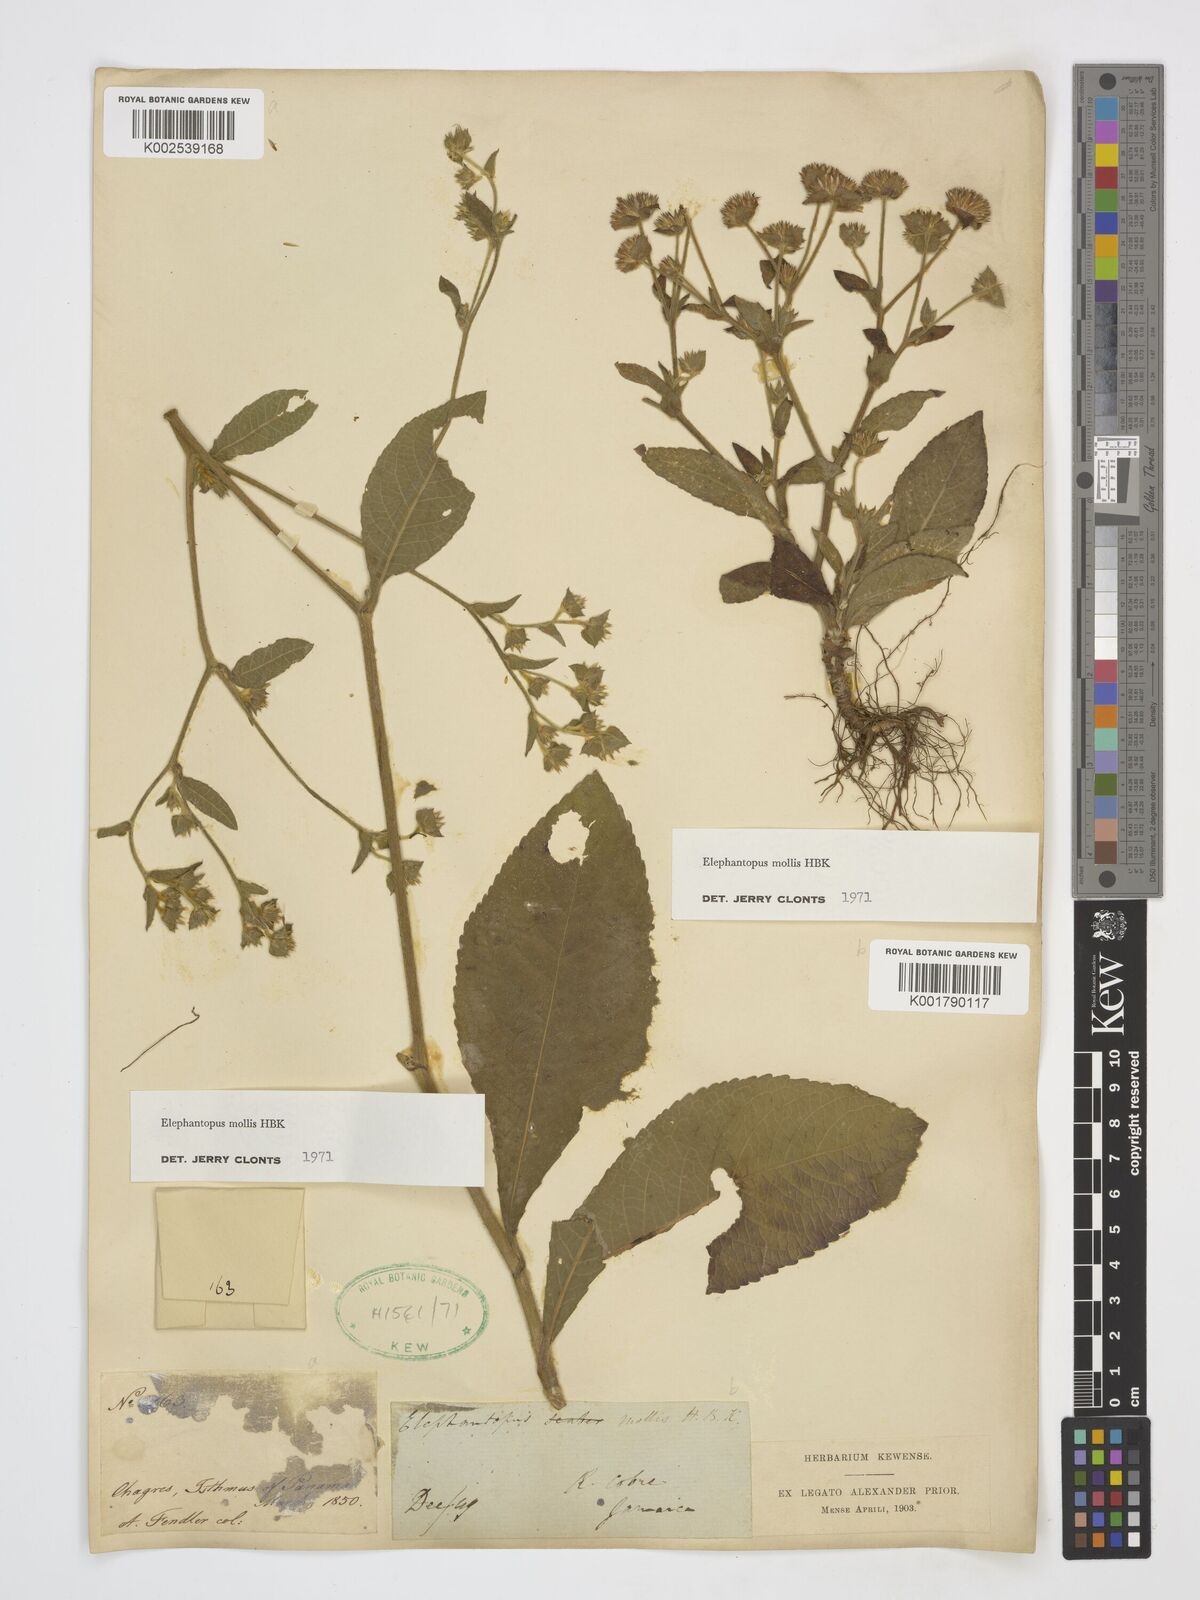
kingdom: Plantae
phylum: Tracheophyta
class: Magnoliopsida
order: Asterales
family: Asteraceae
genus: Elephantopus
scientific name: Elephantopus mollis
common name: Soft elephantsfoot
